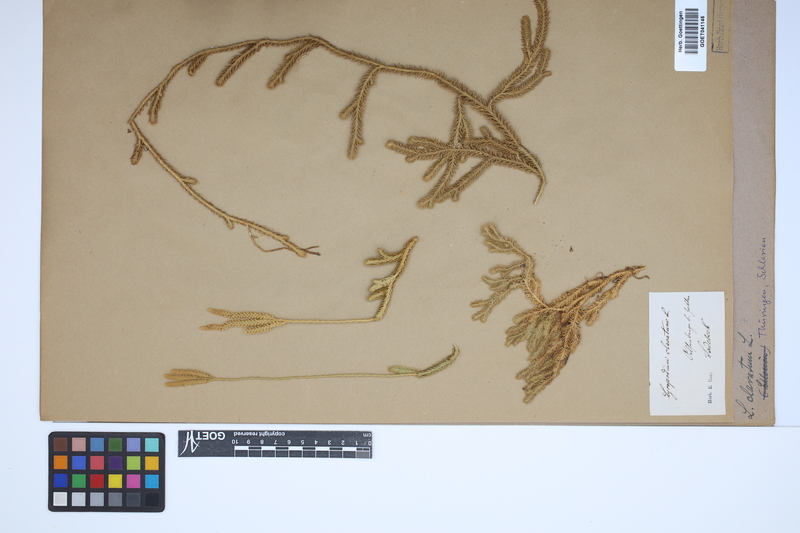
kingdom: Plantae
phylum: Tracheophyta
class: Lycopodiopsida
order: Lycopodiales
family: Lycopodiaceae
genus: Lycopodium
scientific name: Lycopodium clavatum
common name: Stag's-horn clubmoss
